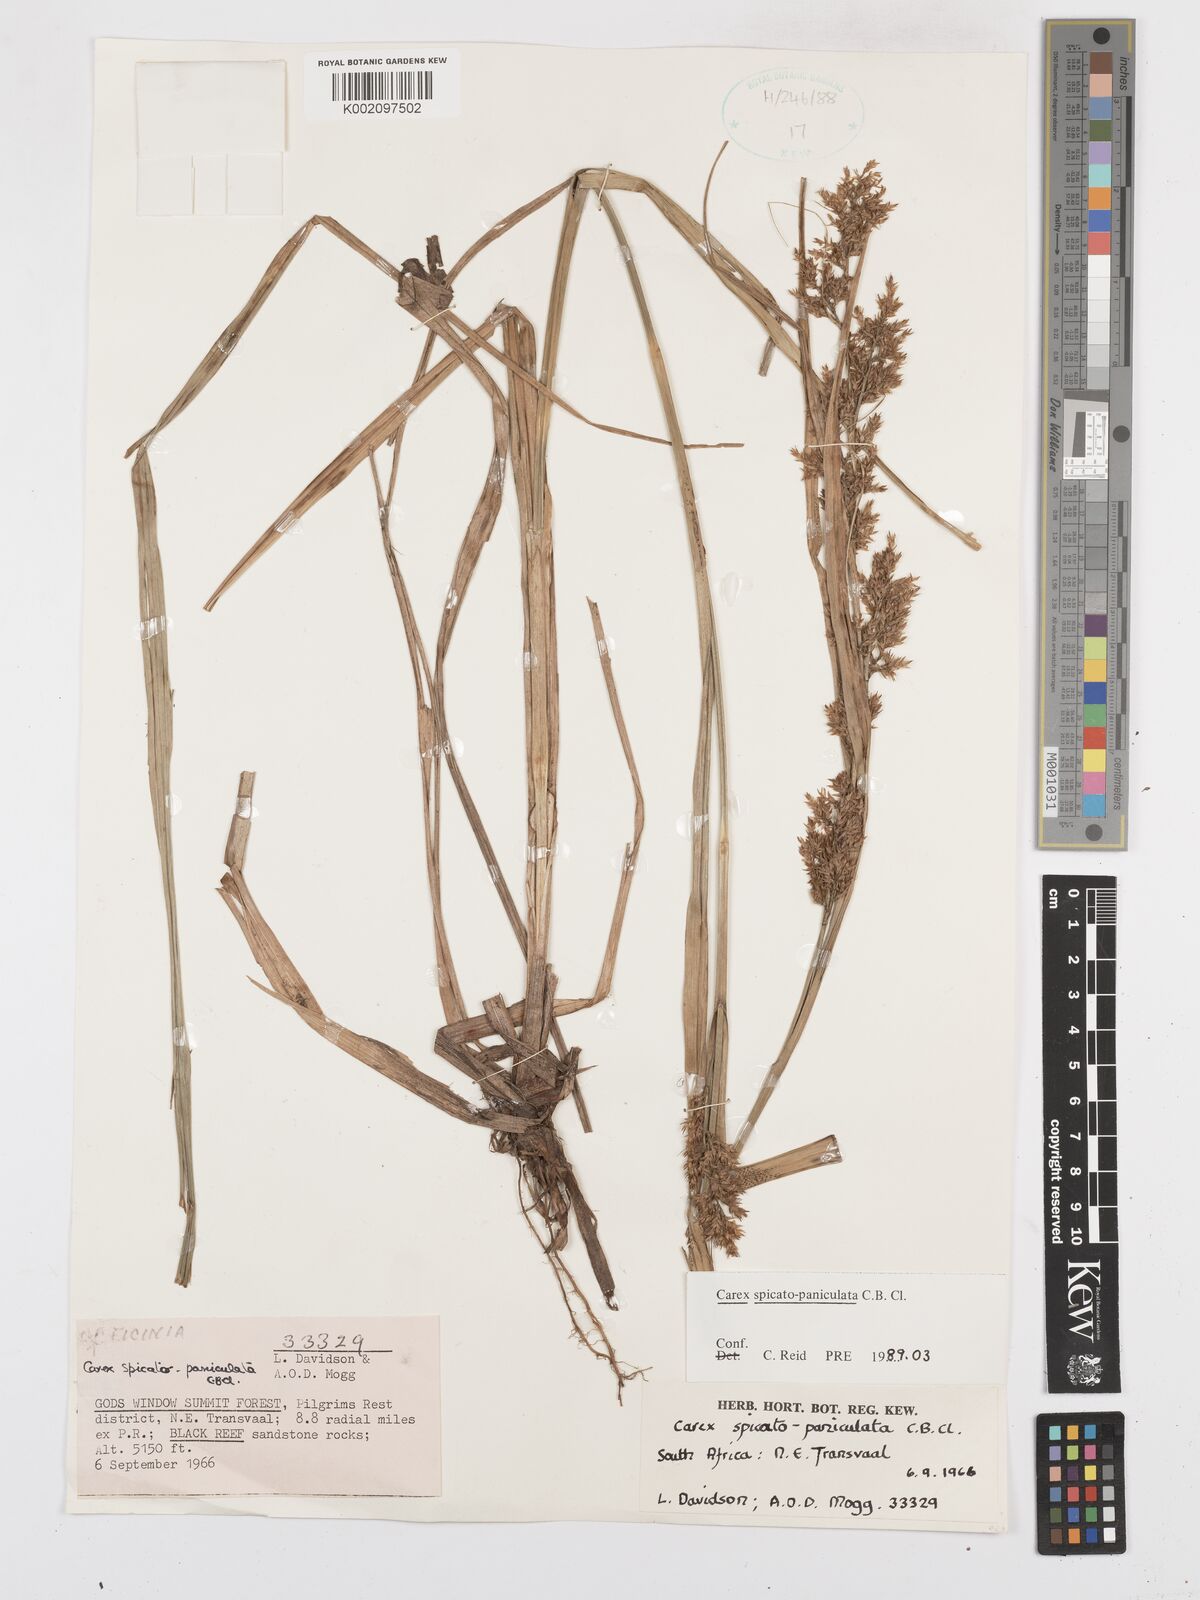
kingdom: Plantae
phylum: Tracheophyta
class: Liliopsida
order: Poales
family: Cyperaceae
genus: Carex
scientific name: Carex spicatopaniculata
